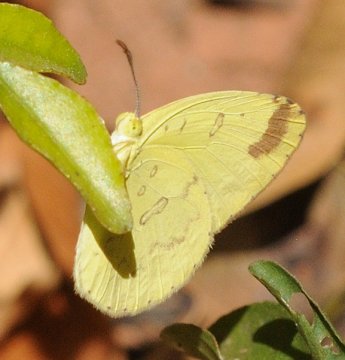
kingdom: Animalia
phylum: Arthropoda
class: Insecta
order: Lepidoptera
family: Pieridae
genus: Eurema
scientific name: Eurema
